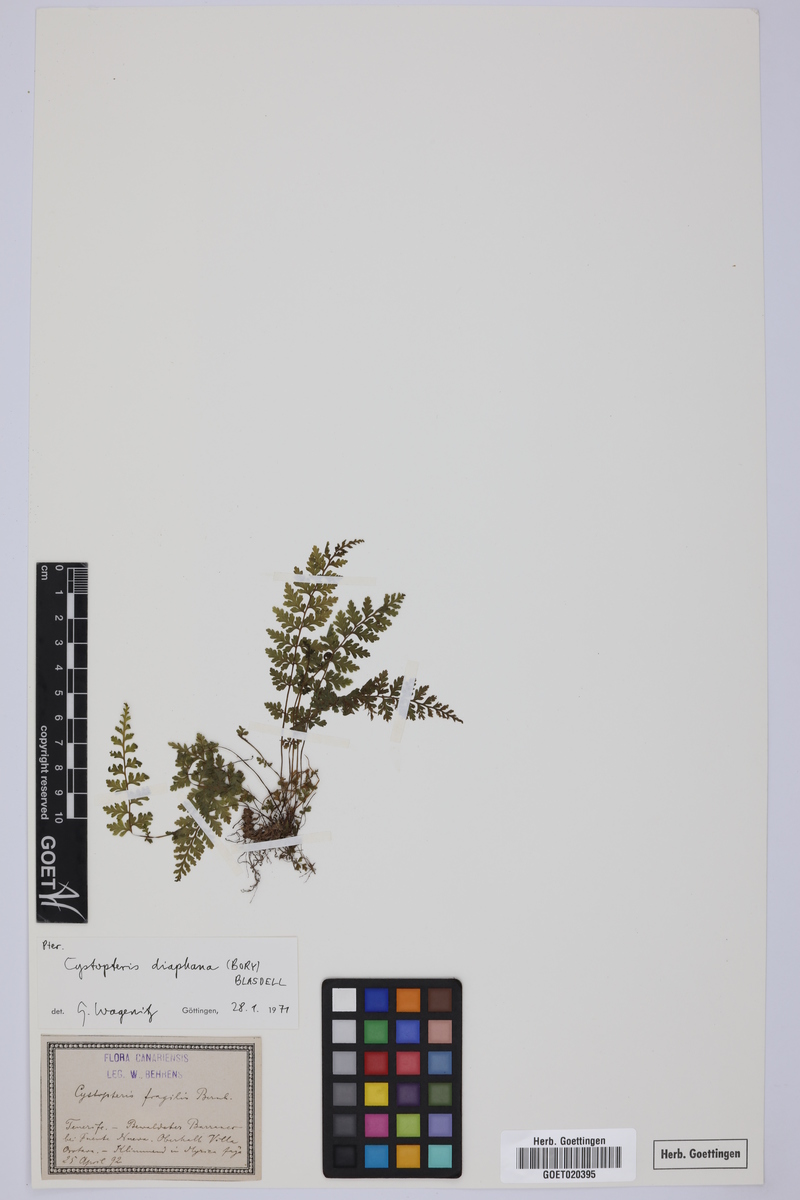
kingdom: Plantae
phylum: Tracheophyta
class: Polypodiopsida
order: Polypodiales
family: Cystopteridaceae
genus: Cystopteris
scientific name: Cystopteris fragilis
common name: Brittle bladder fern
